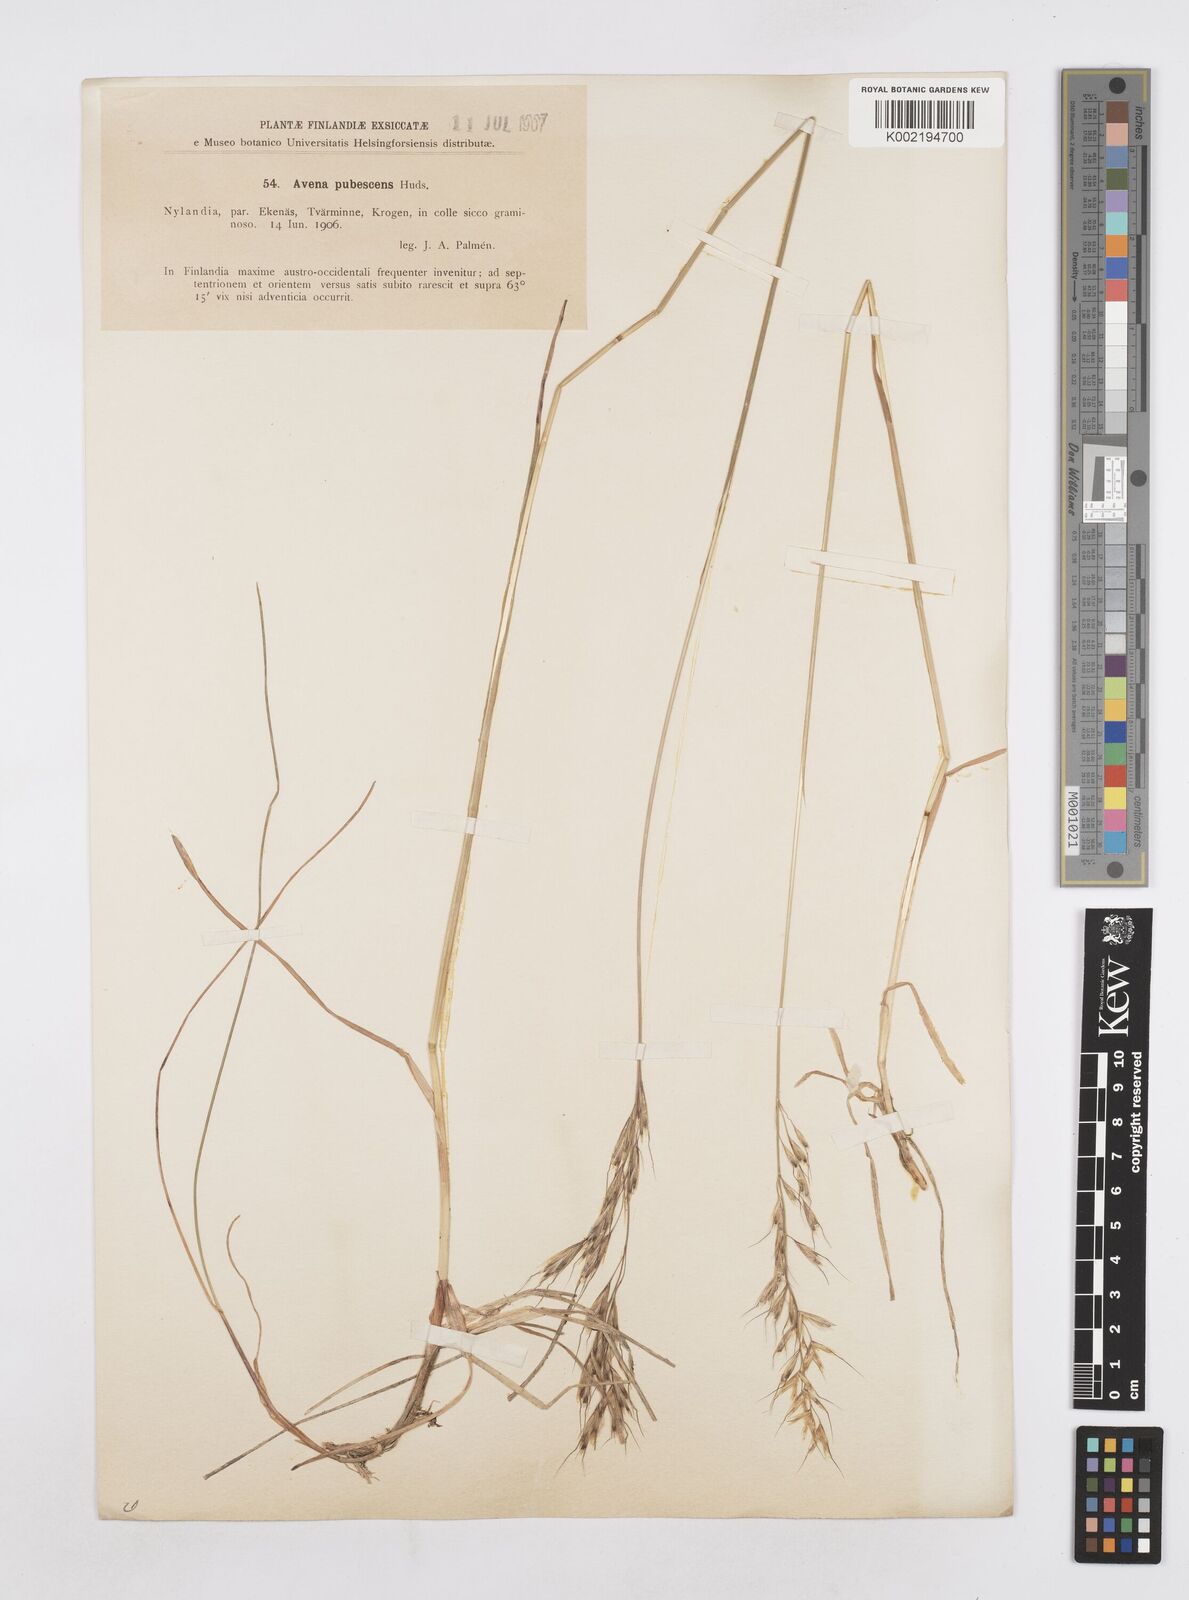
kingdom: Plantae
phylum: Tracheophyta
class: Liliopsida
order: Poales
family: Poaceae
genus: Avenula
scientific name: Avenula pubescens
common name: Downy alpine oatgrass
